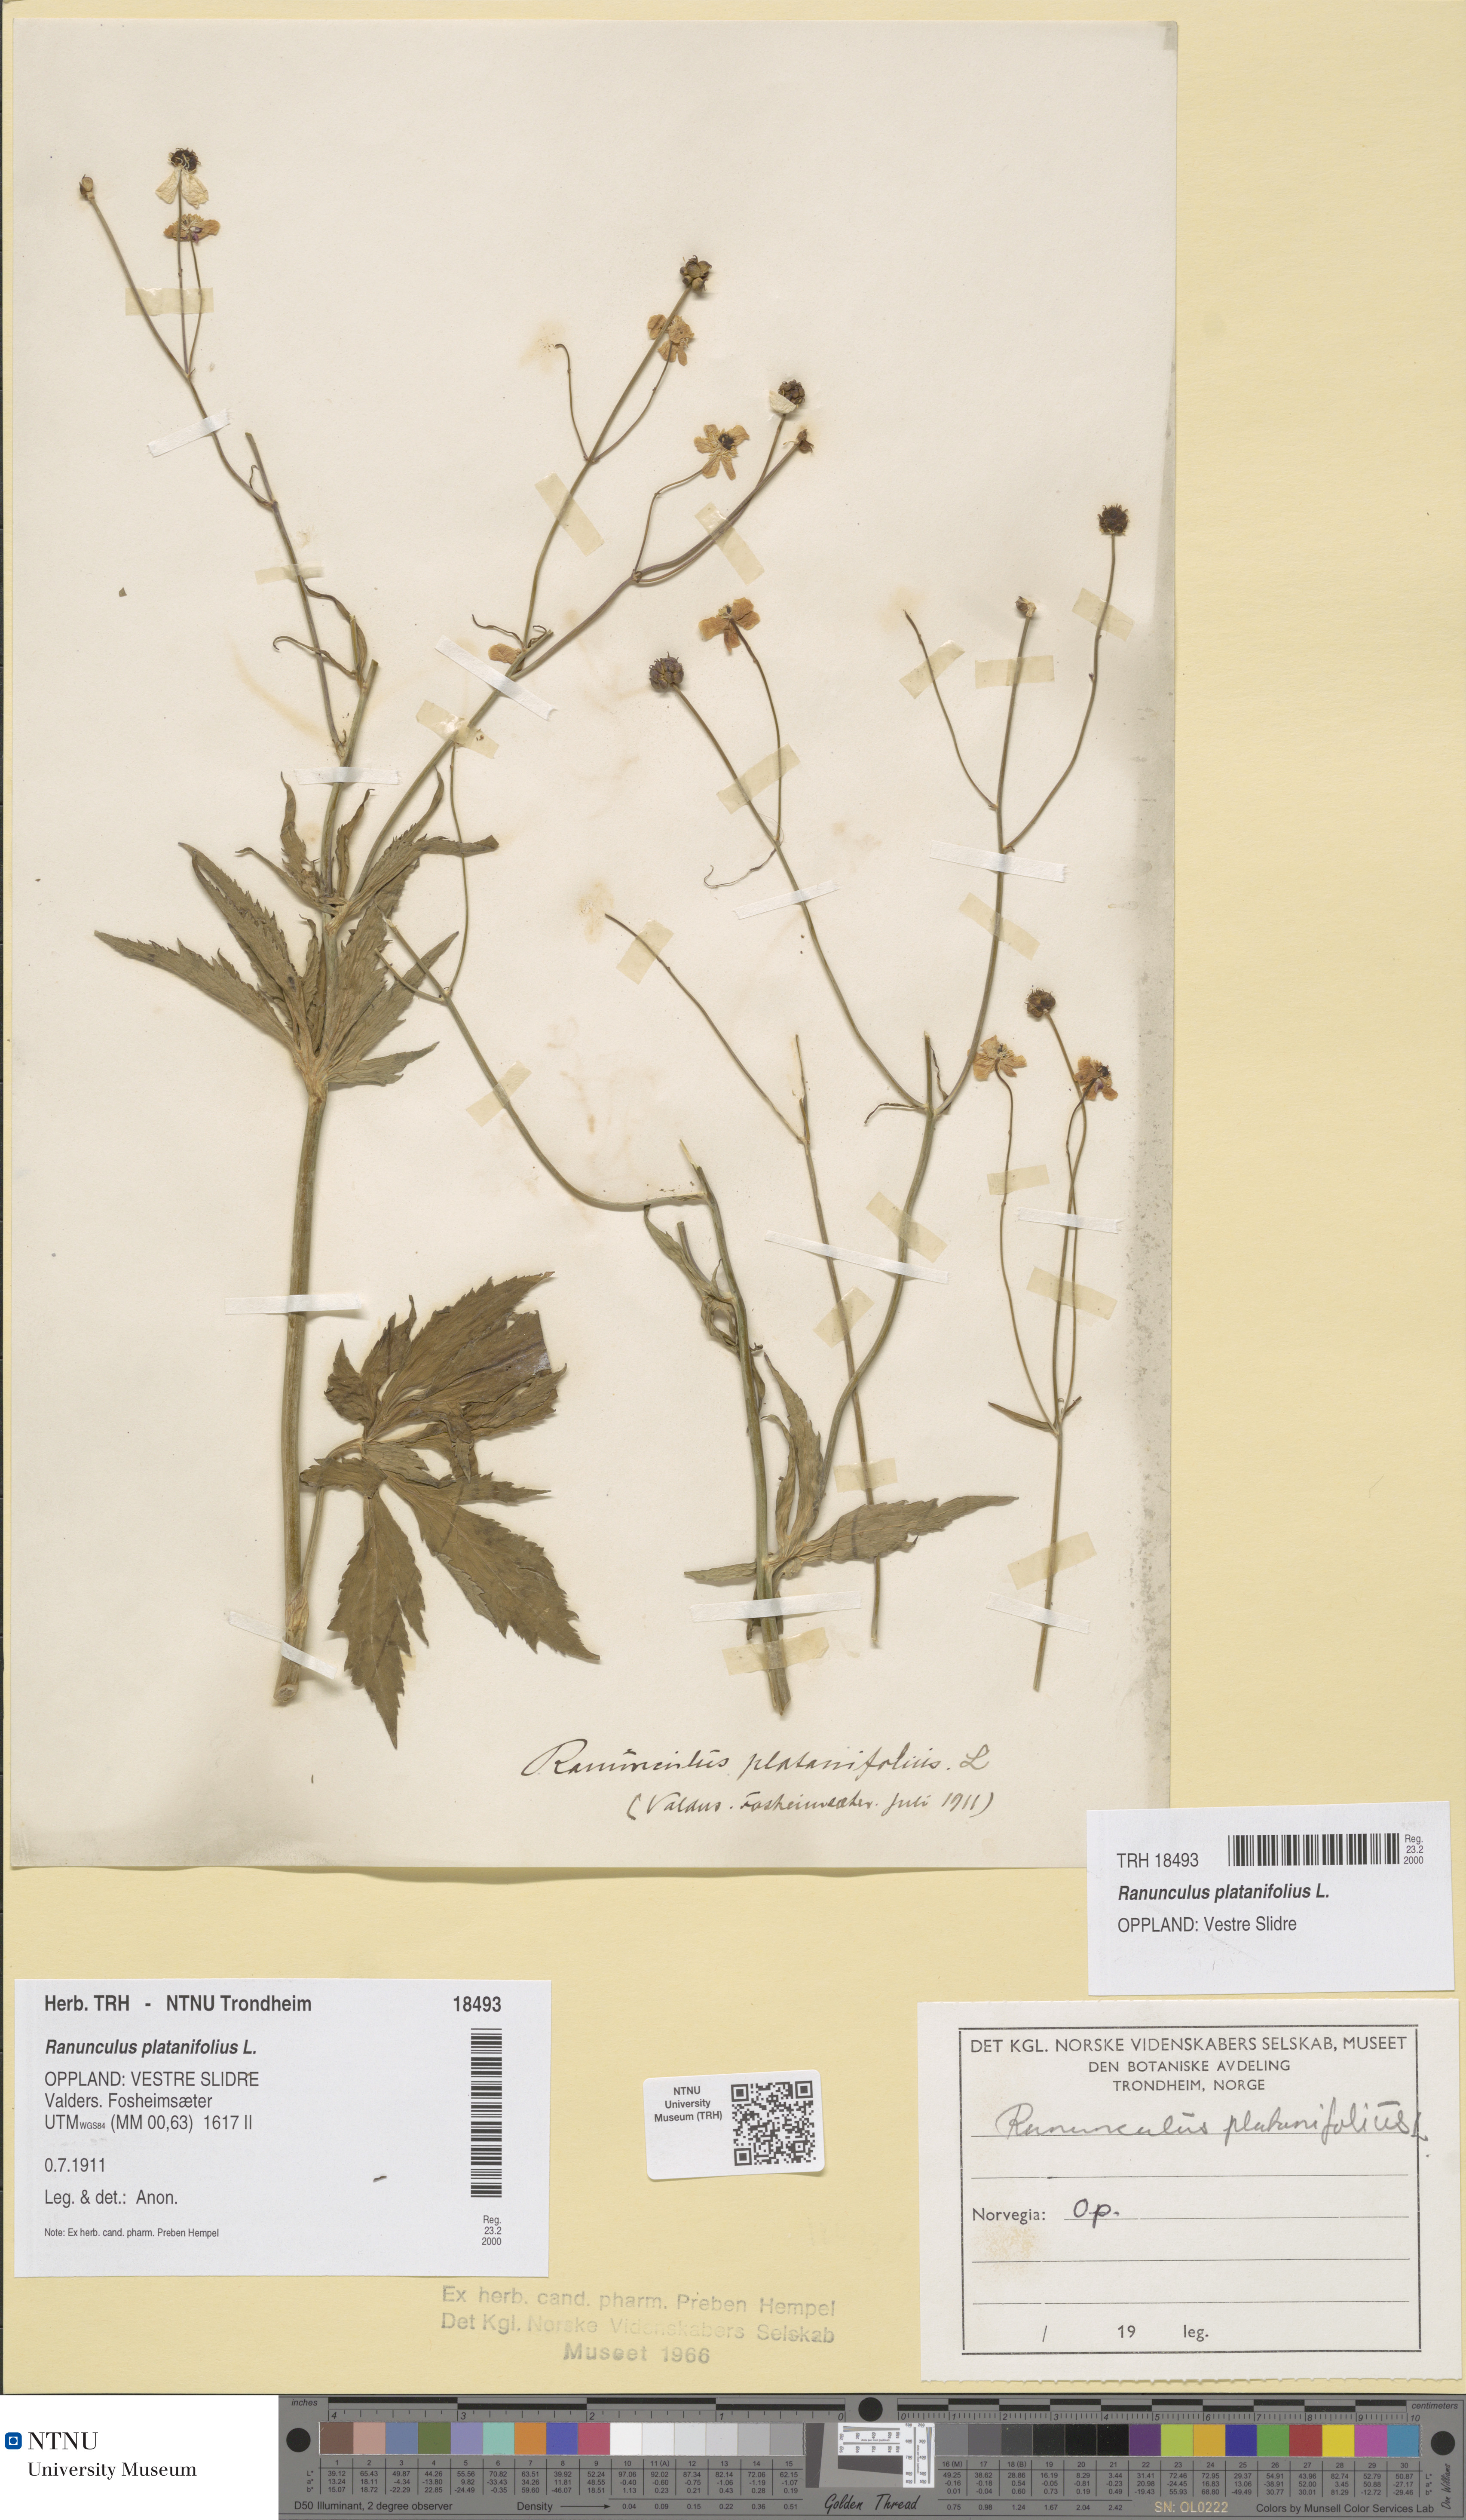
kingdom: Plantae
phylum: Tracheophyta
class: Magnoliopsida
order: Ranunculales
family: Ranunculaceae
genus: Ranunculus
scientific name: Ranunculus platanifolius
